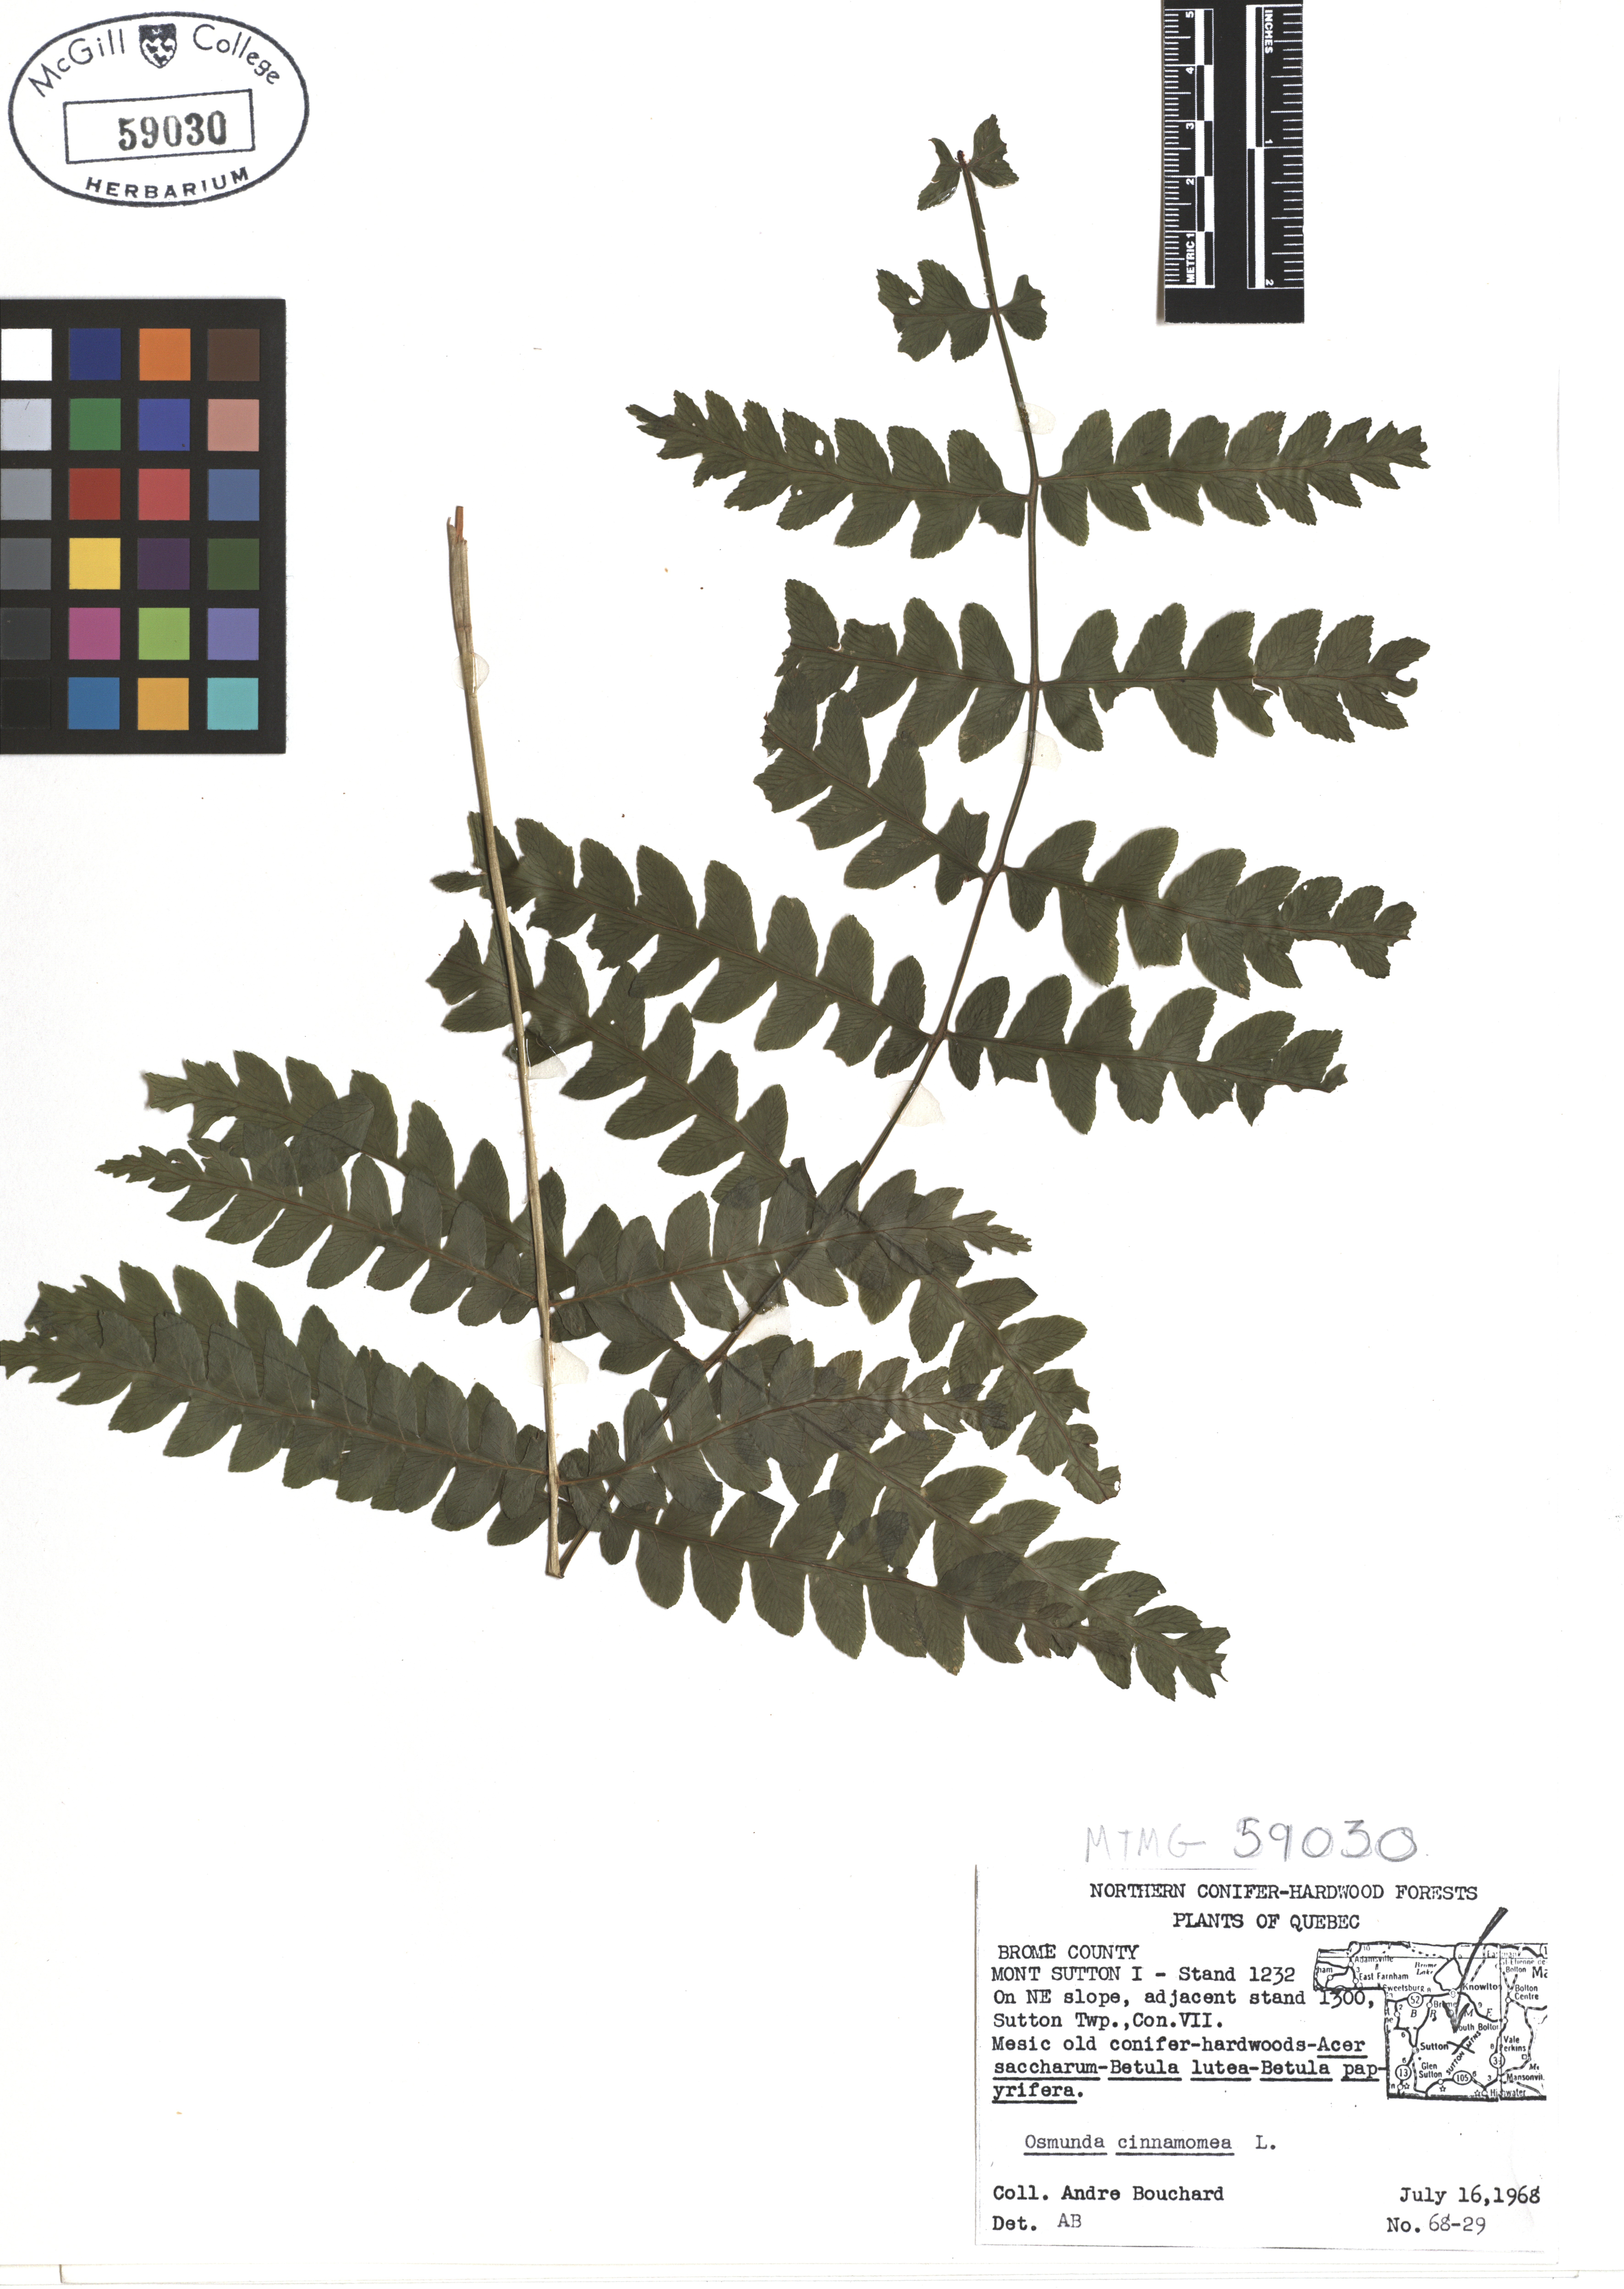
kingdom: Plantae
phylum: Tracheophyta
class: Polypodiopsida
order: Osmundales
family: Osmundaceae
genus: Osmundastrum
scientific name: Osmundastrum cinnamomeum
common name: Cinnamon fern
